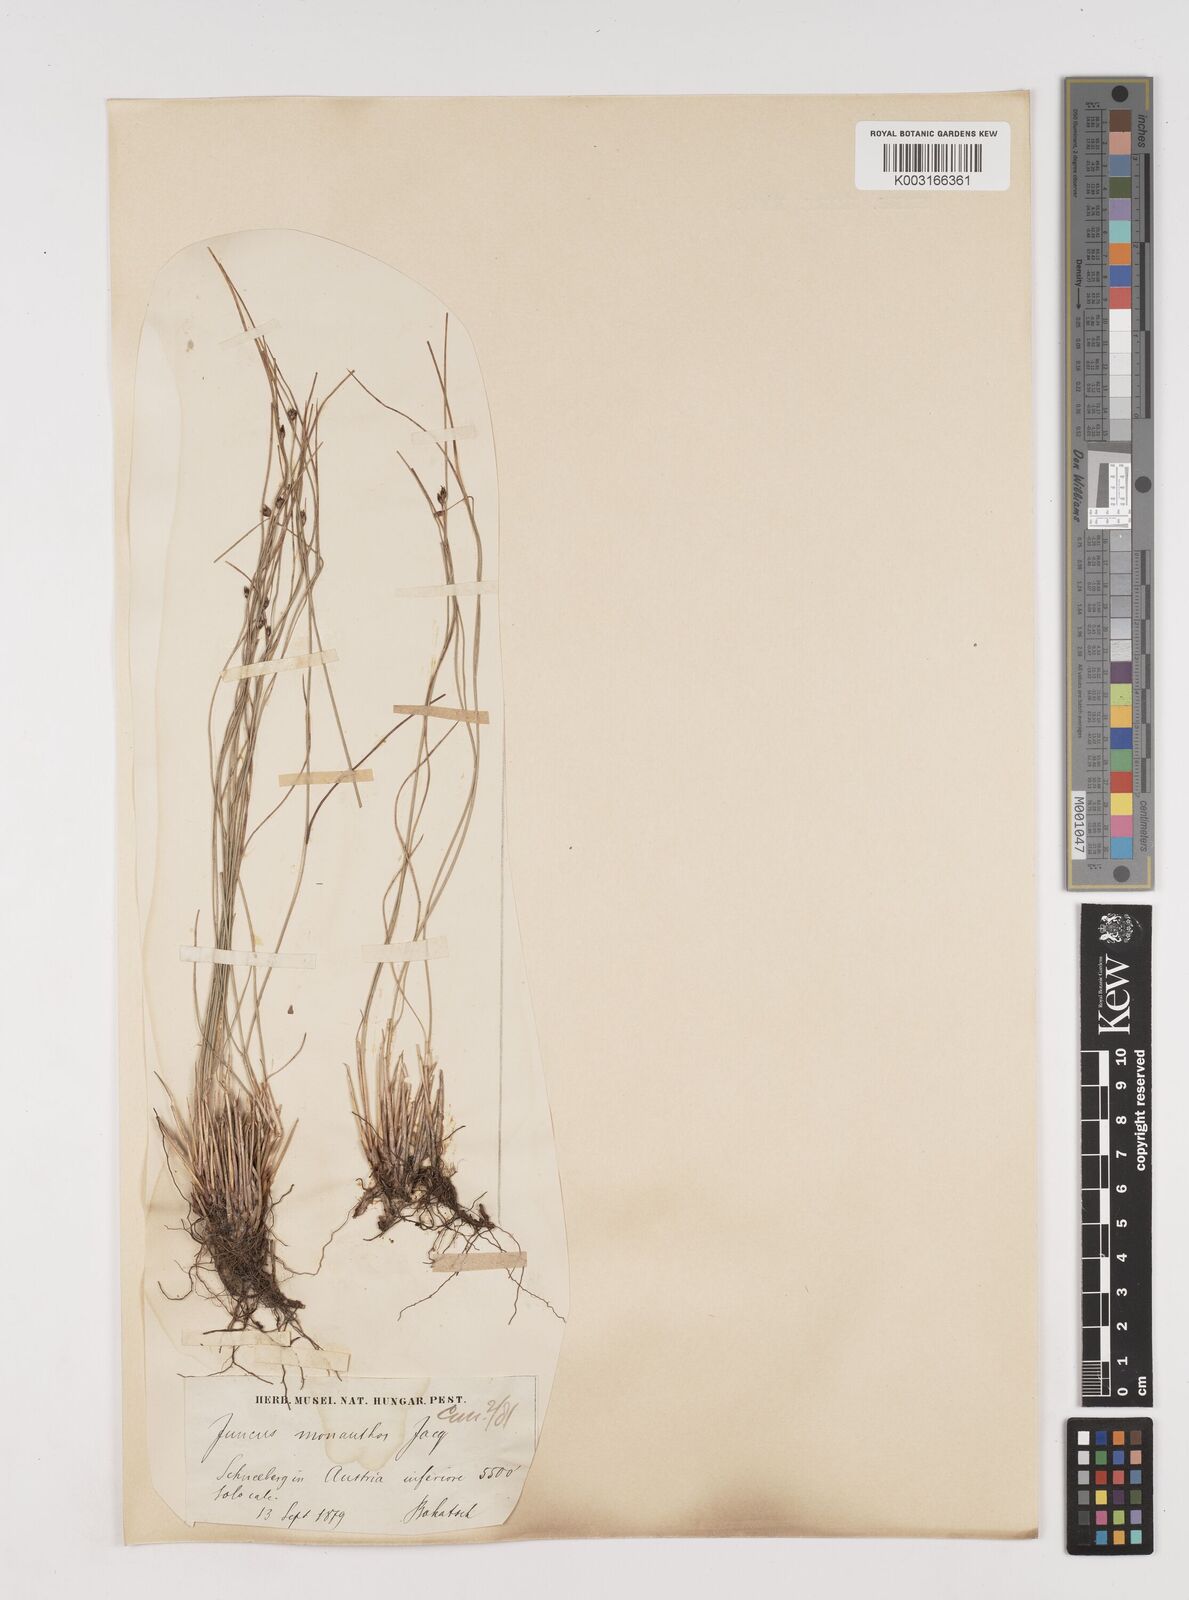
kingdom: Plantae
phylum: Tracheophyta
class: Liliopsida
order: Poales
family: Juncaceae
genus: Oreojuncus
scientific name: Oreojuncus trifidus
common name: Highland rush
